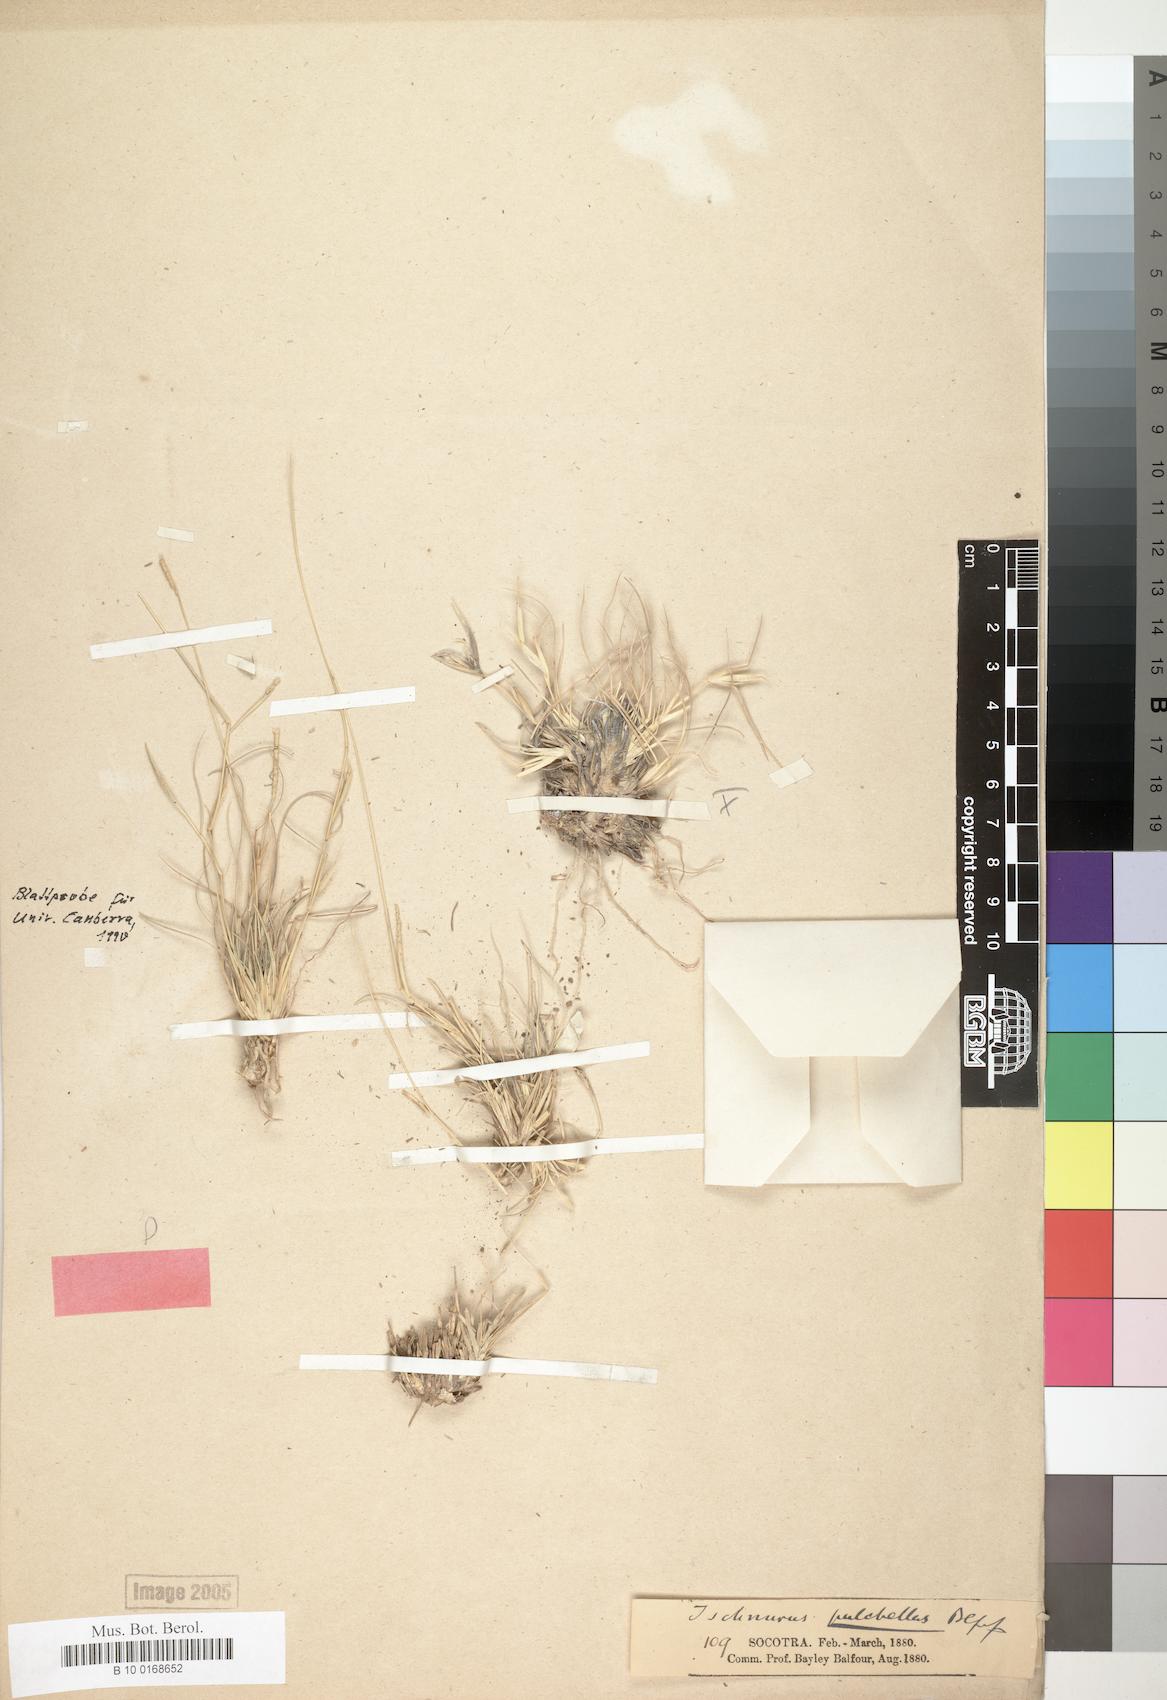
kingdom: Plantae
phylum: Tracheophyta
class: Liliopsida
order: Poales
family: Poaceae
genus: Lepturus
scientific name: Lepturus pulchellus
